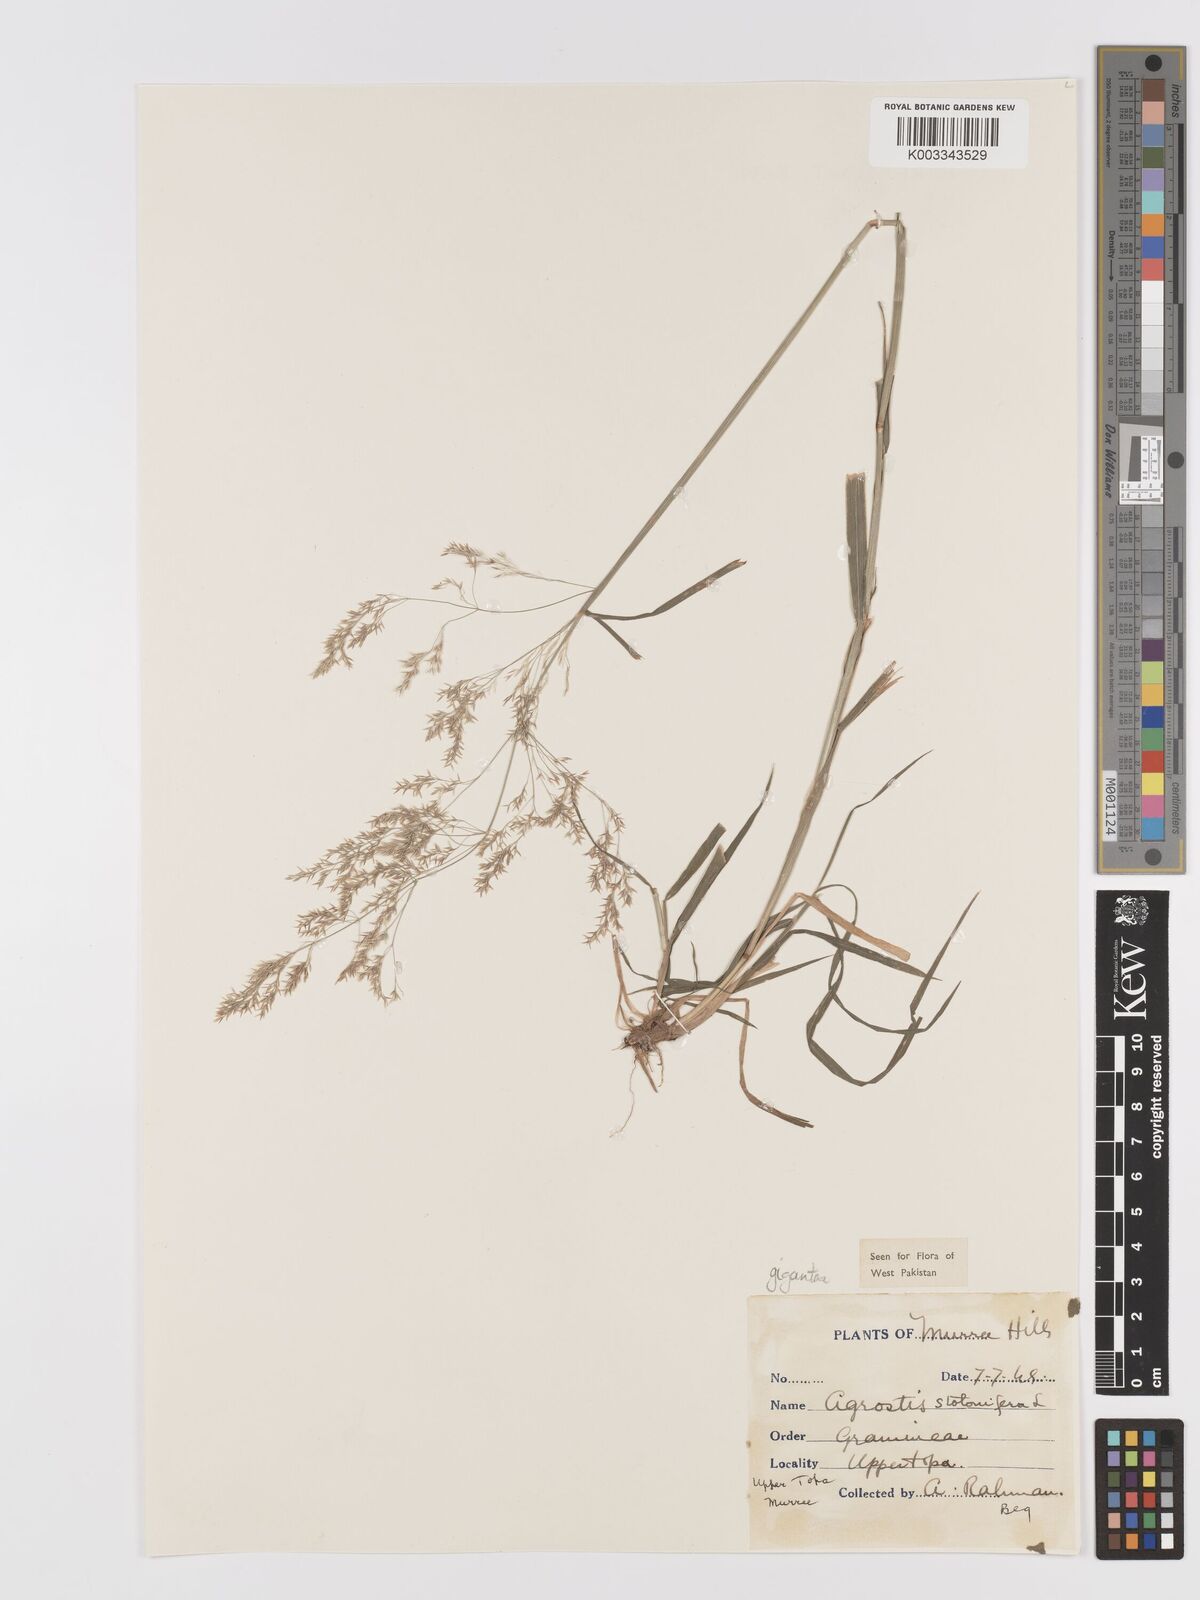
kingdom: Plantae
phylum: Tracheophyta
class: Liliopsida
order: Poales
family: Poaceae
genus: Agrostis
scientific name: Agrostis gigantea
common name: Black bent
